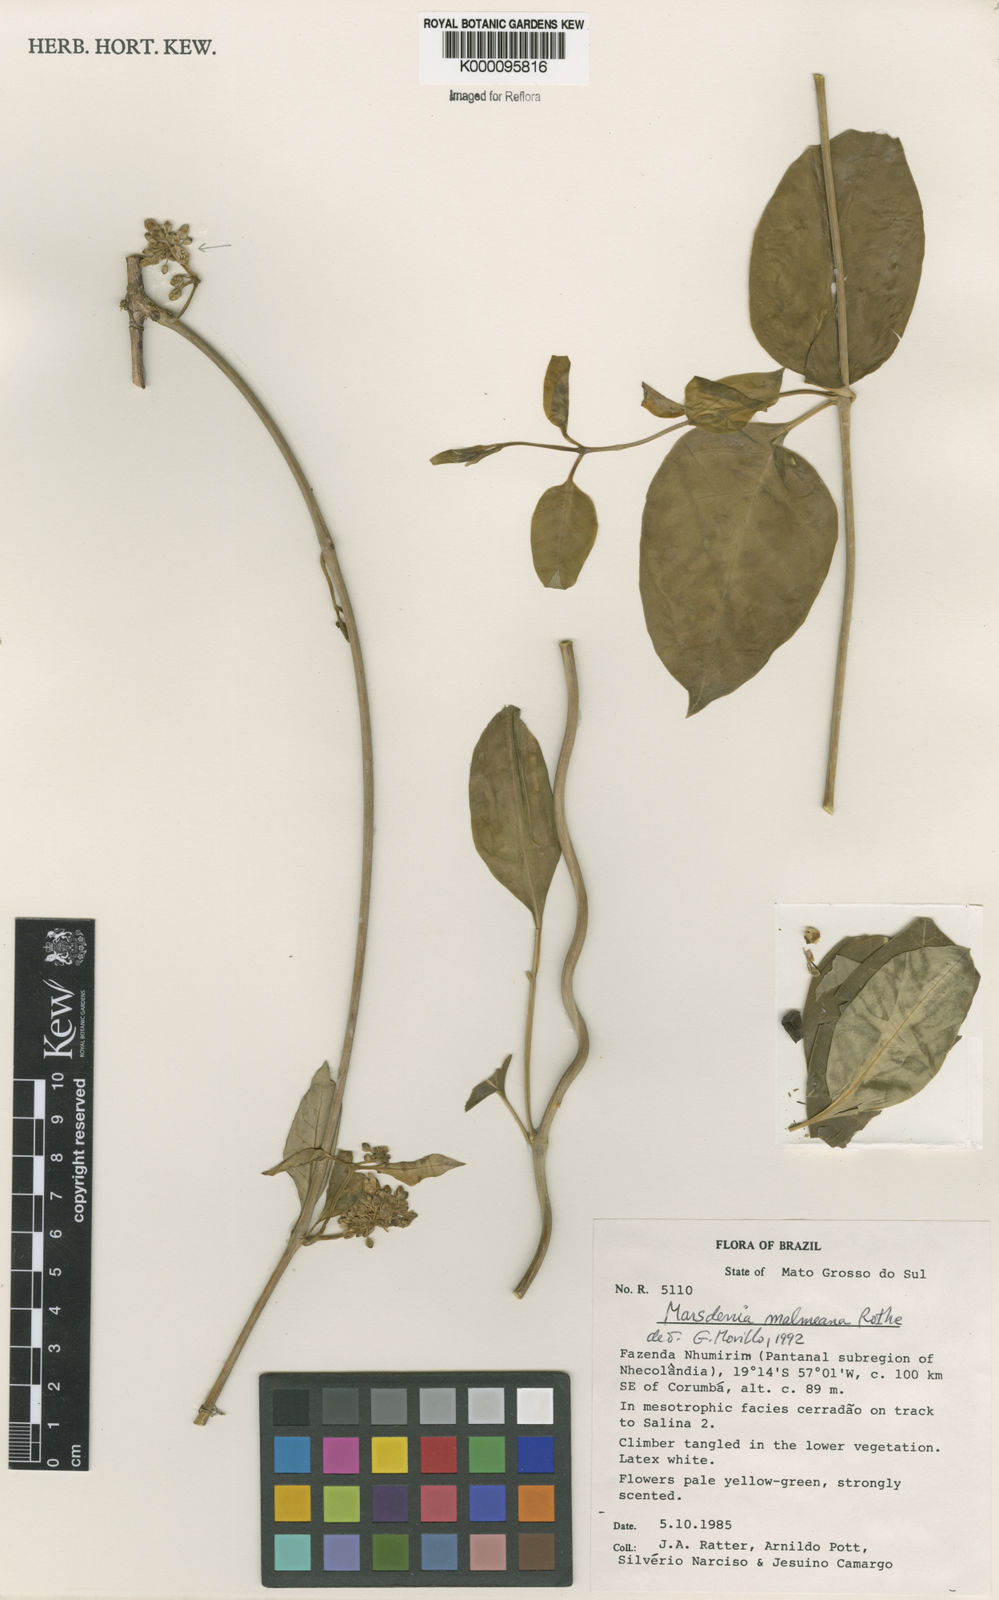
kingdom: Plantae
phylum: Tracheophyta
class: Magnoliopsida
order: Gentianales
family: Apocynaceae
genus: Ruehssia
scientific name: Ruehssia malmeana
